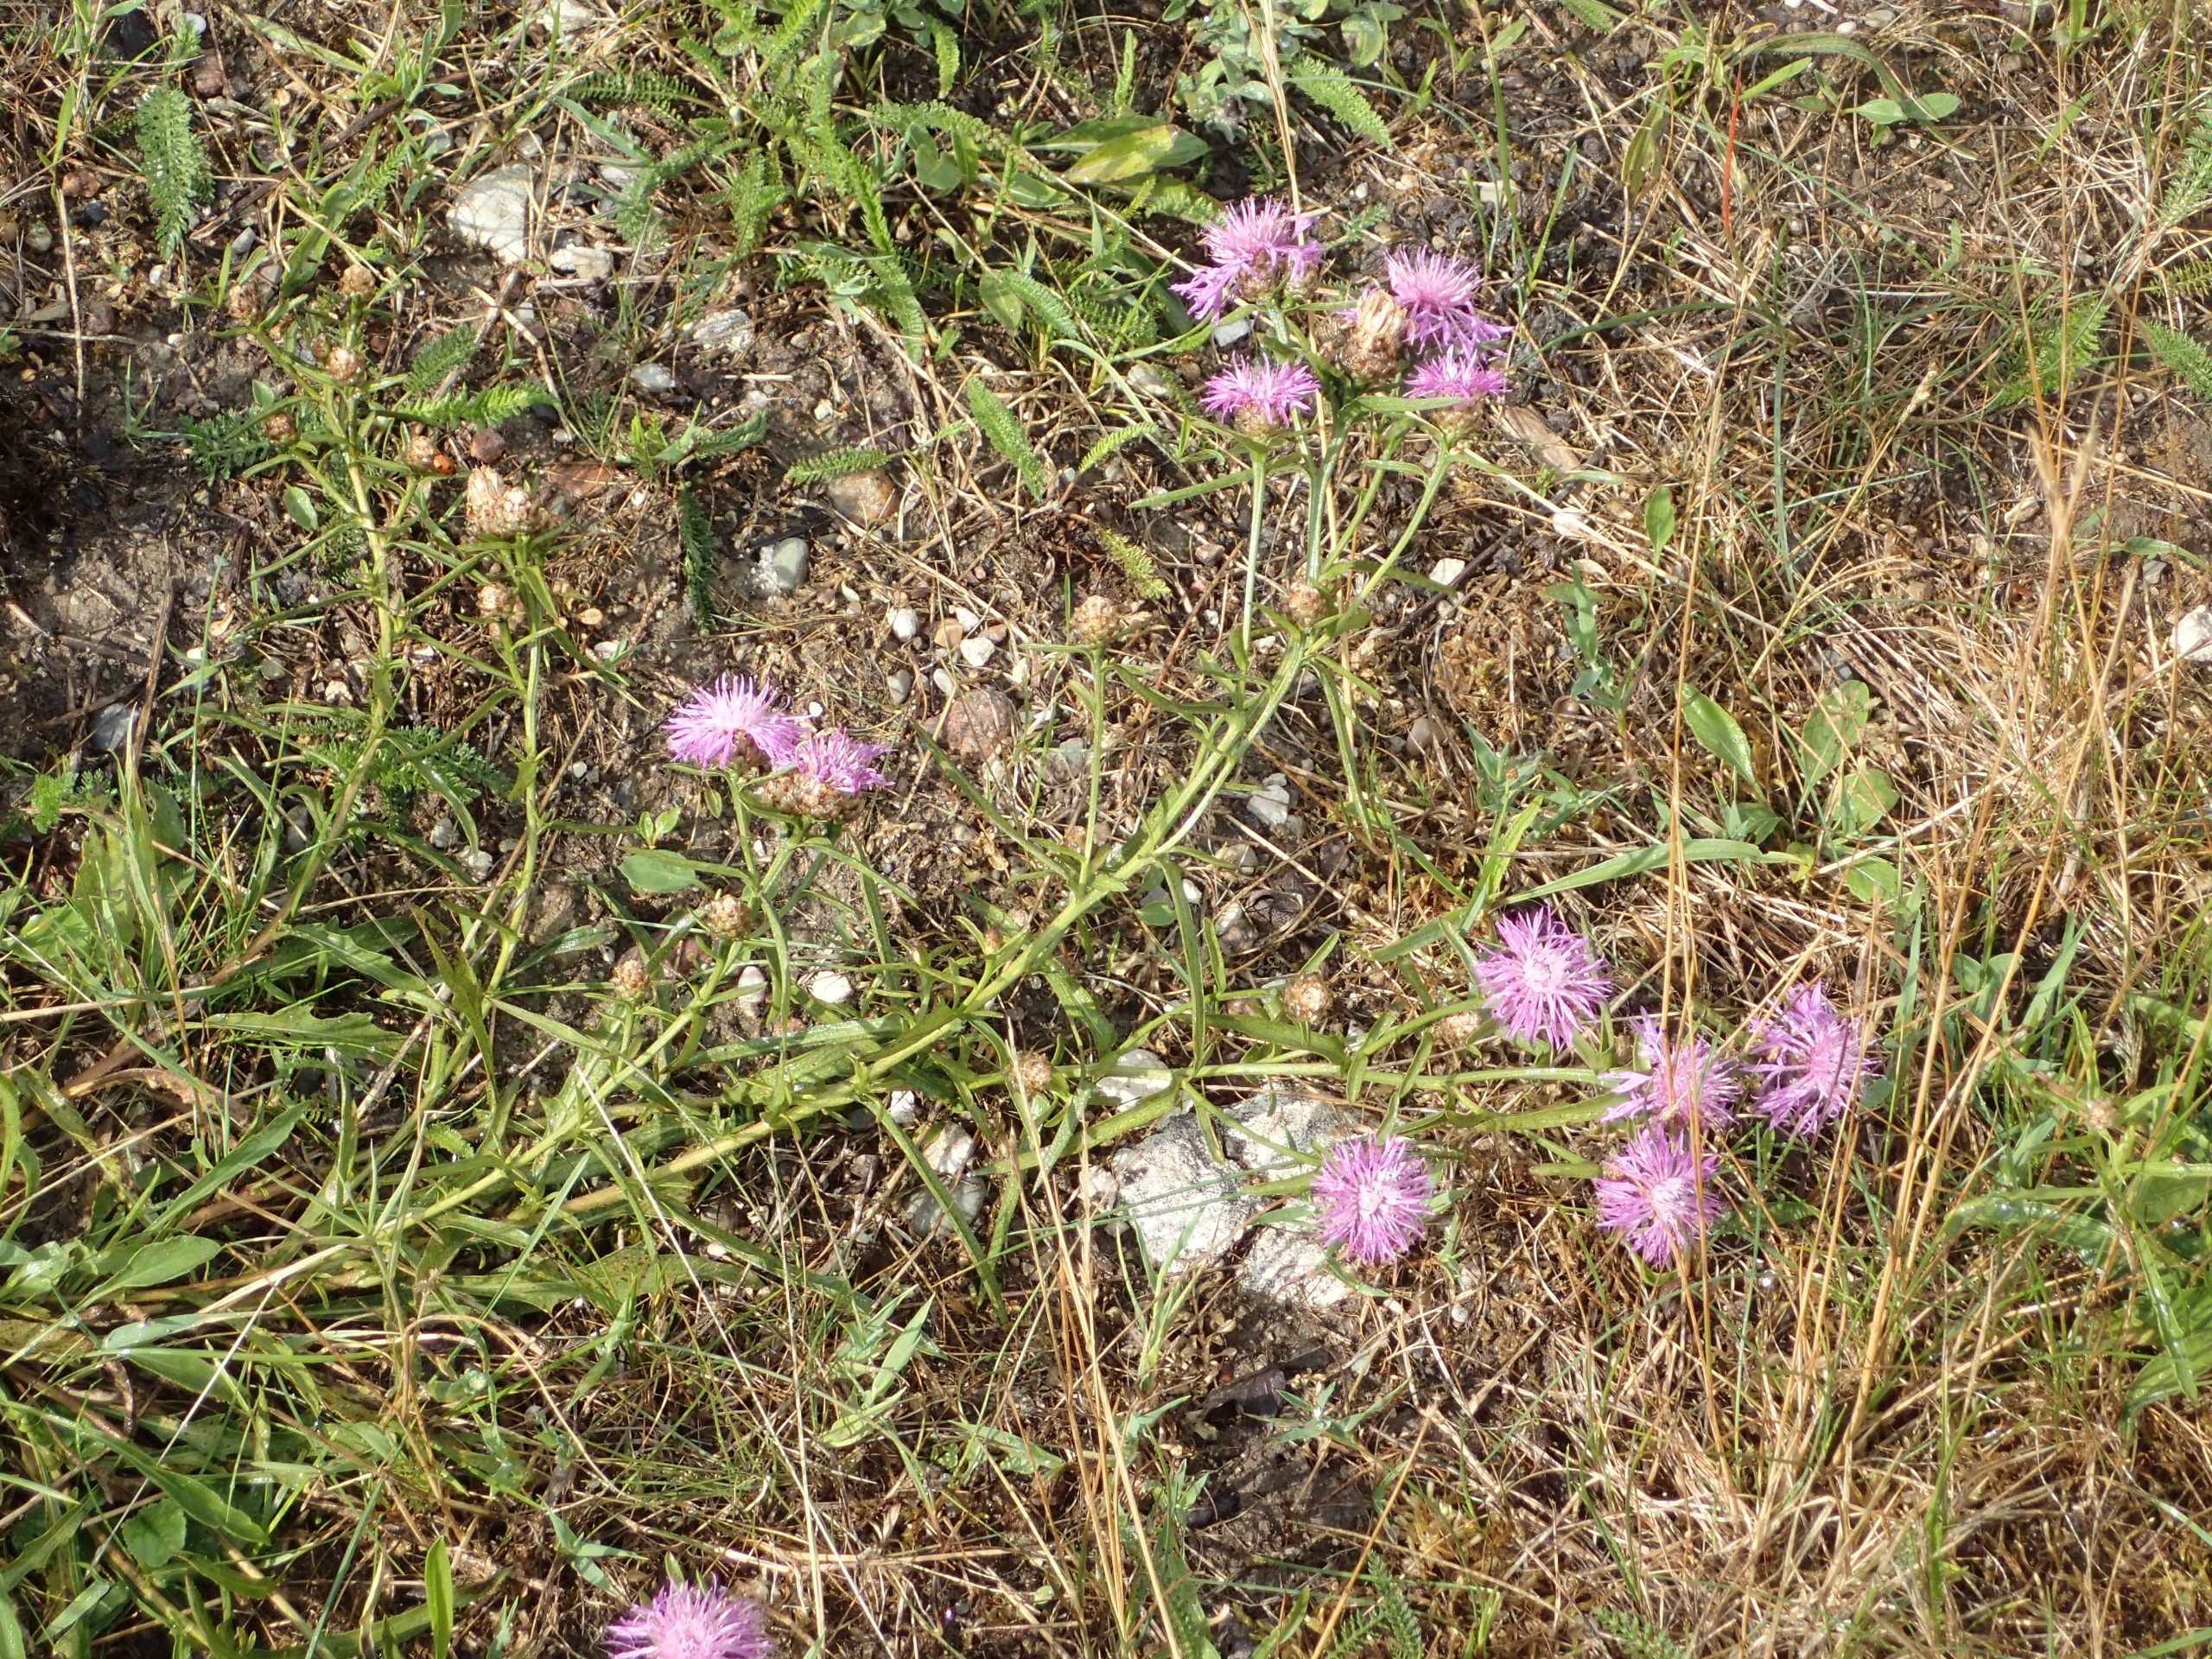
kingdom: Plantae
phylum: Tracheophyta
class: Magnoliopsida
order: Asterales
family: Asteraceae
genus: Centaurea
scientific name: Centaurea jacea
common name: Almindelig knopurt
